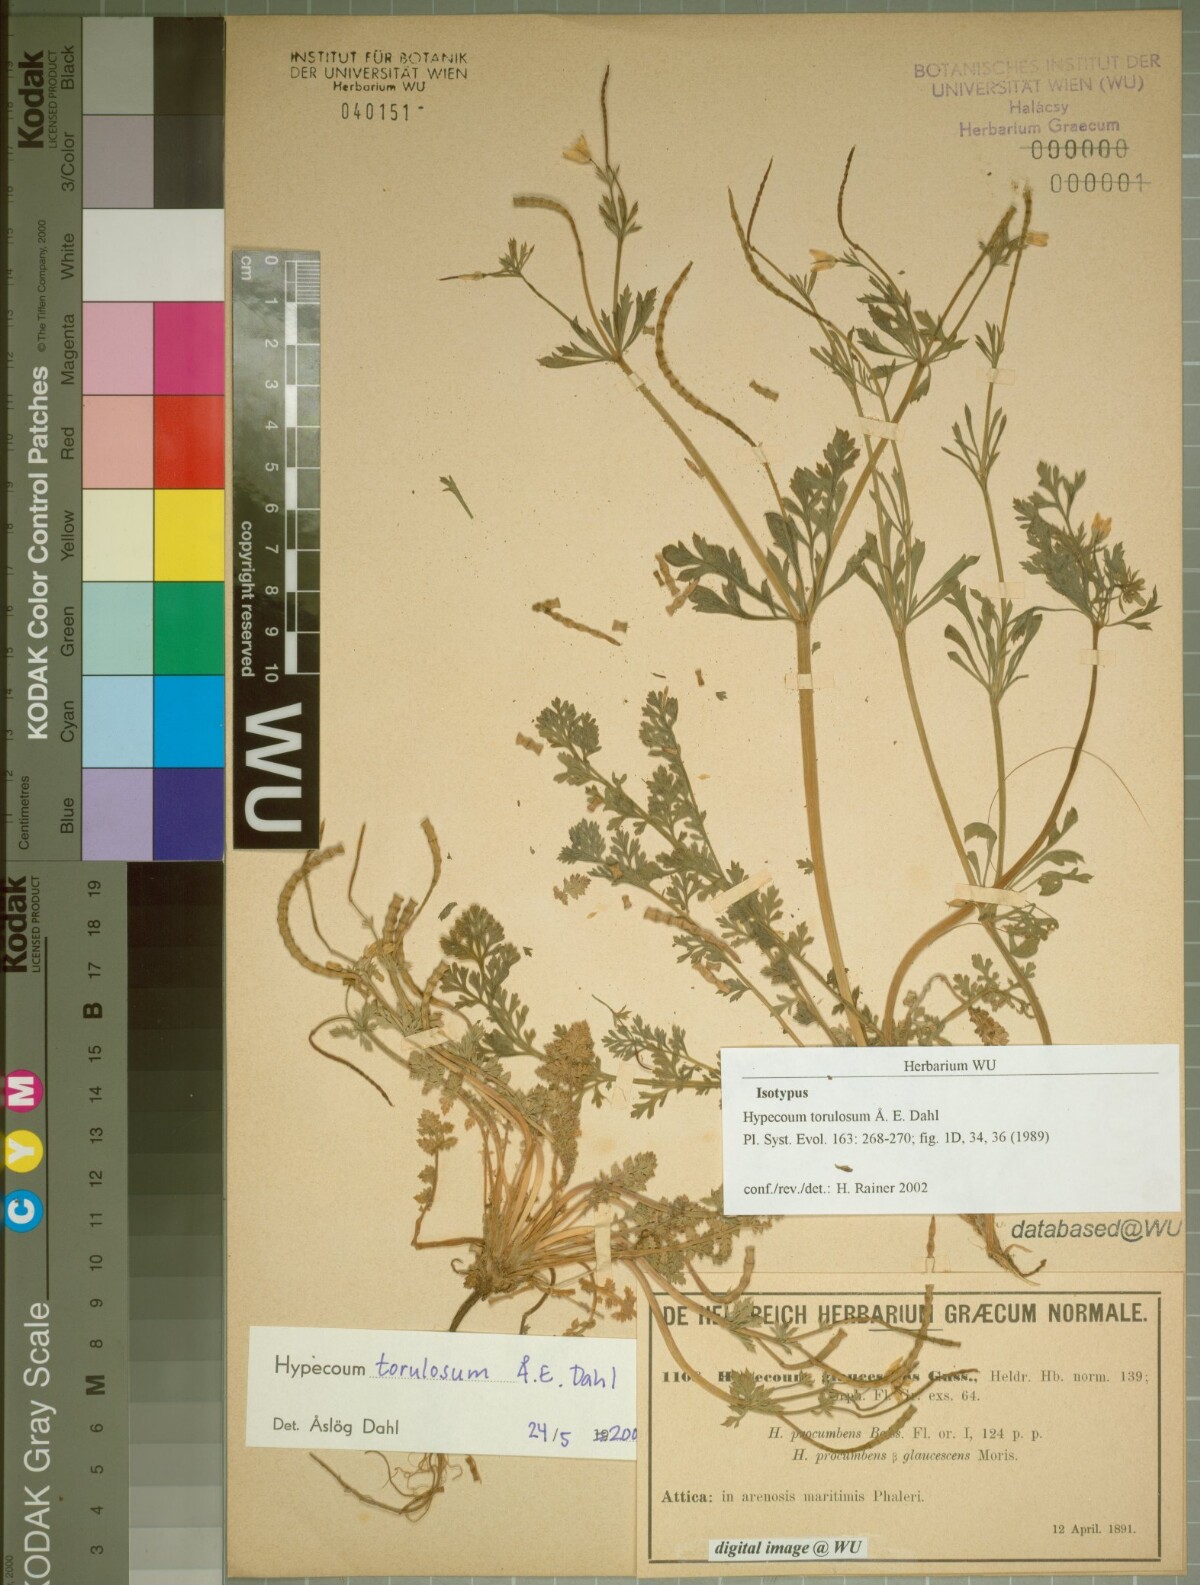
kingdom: Plantae
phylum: Tracheophyta
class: Magnoliopsida
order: Ranunculales
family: Papaveraceae
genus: Hypecoum
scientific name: Hypecoum torulosum
